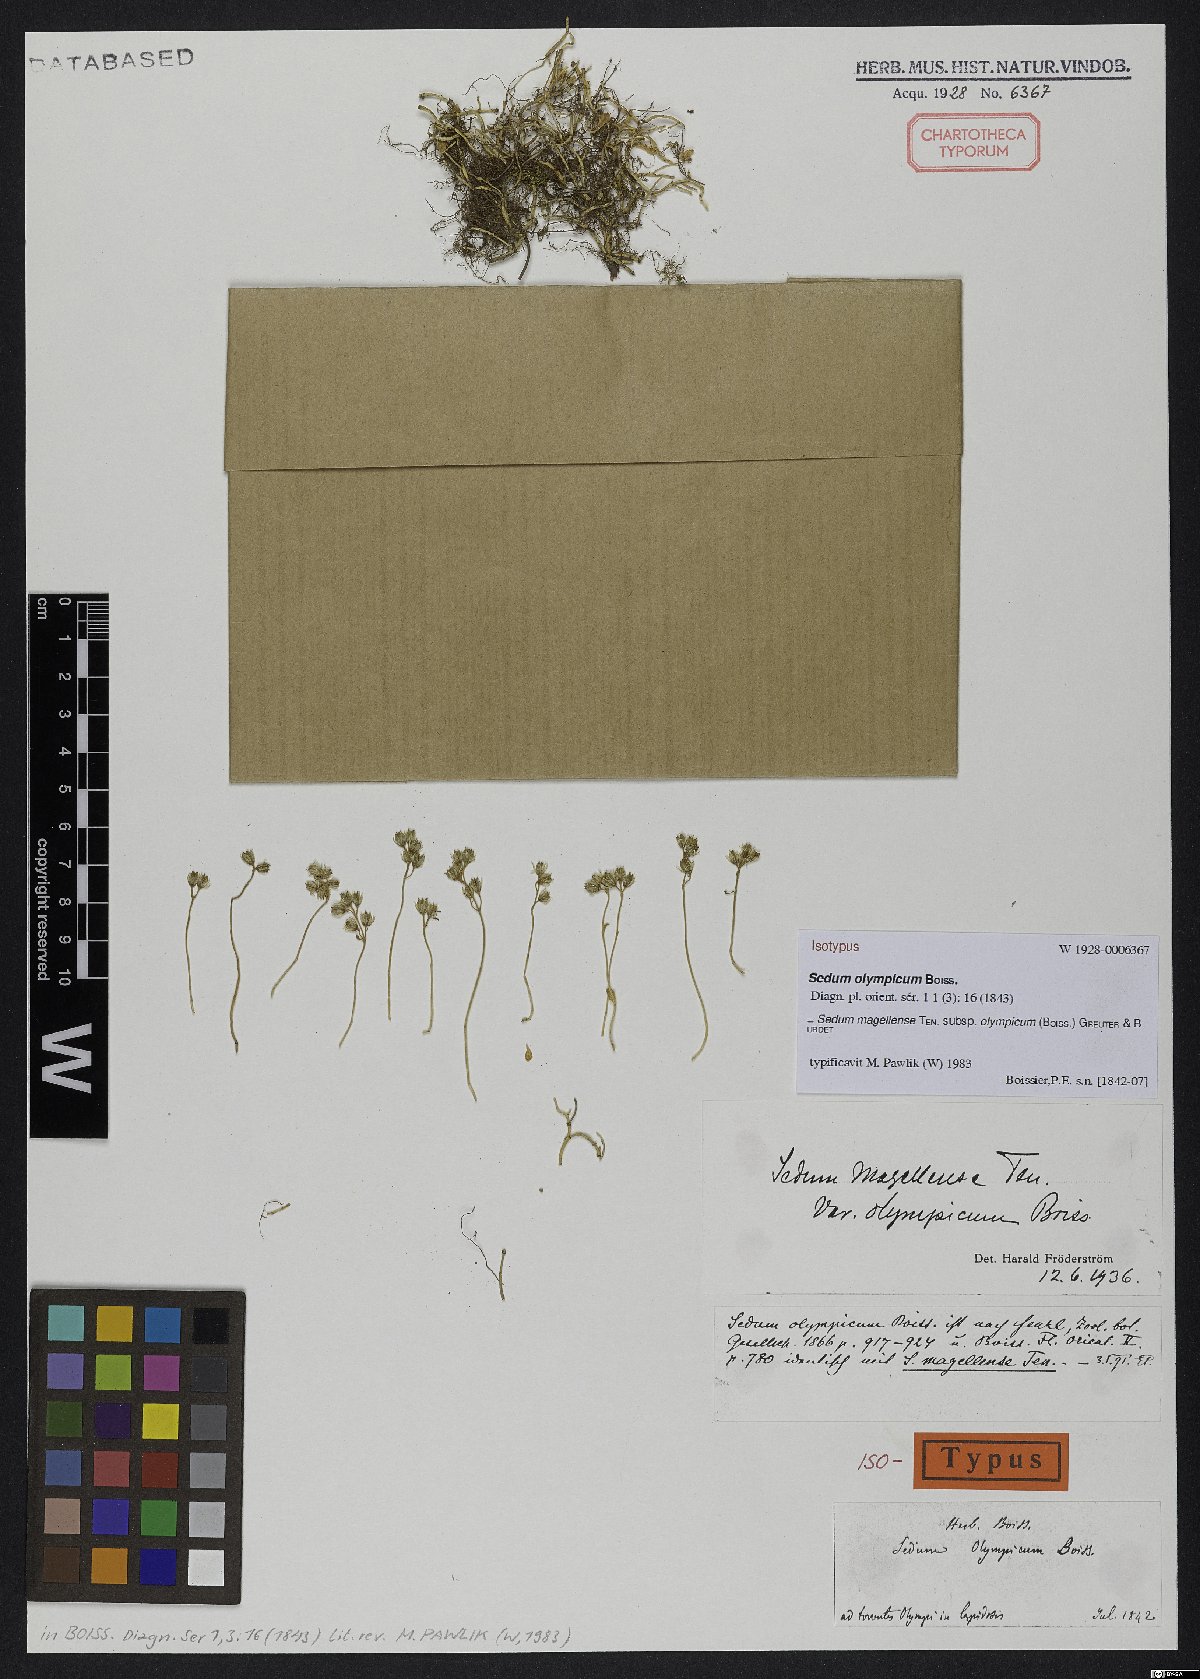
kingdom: Plantae
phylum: Tracheophyta
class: Magnoliopsida
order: Saxifragales
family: Crassulaceae
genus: Sedum
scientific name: Sedum magellense
